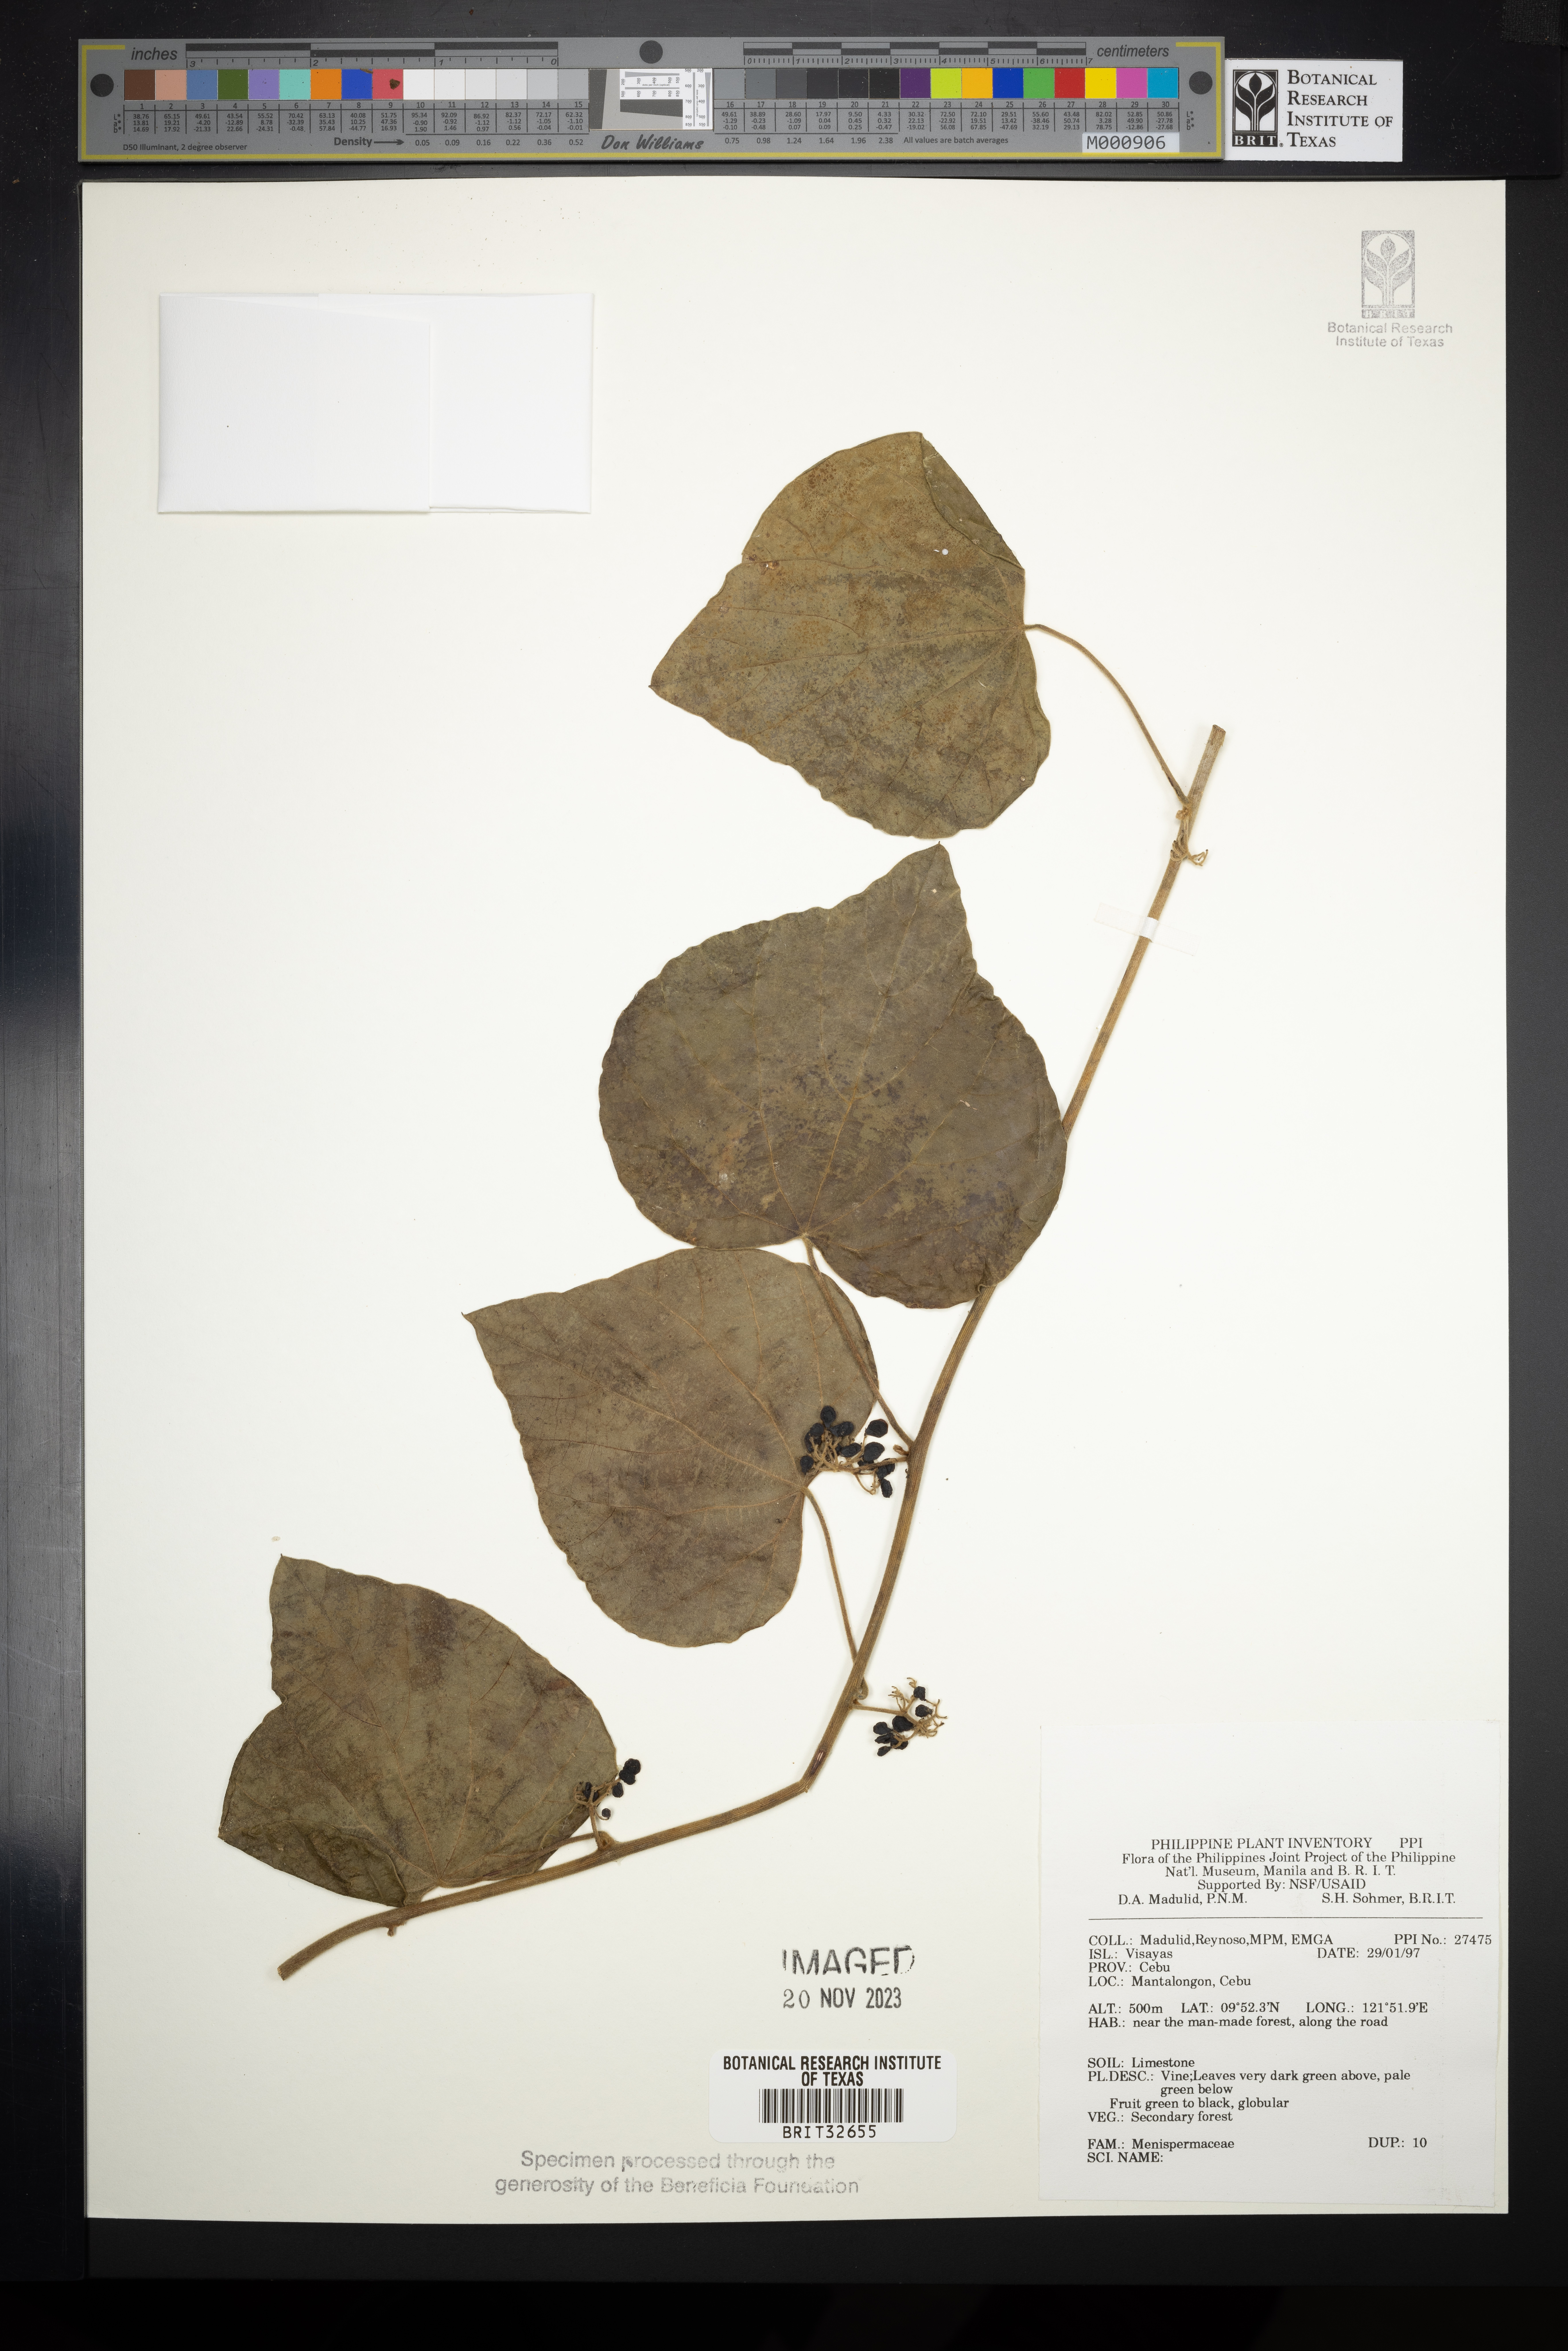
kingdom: Plantae
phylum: Tracheophyta
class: Magnoliopsida
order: Ranunculales
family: Menispermaceae
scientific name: Menispermaceae
